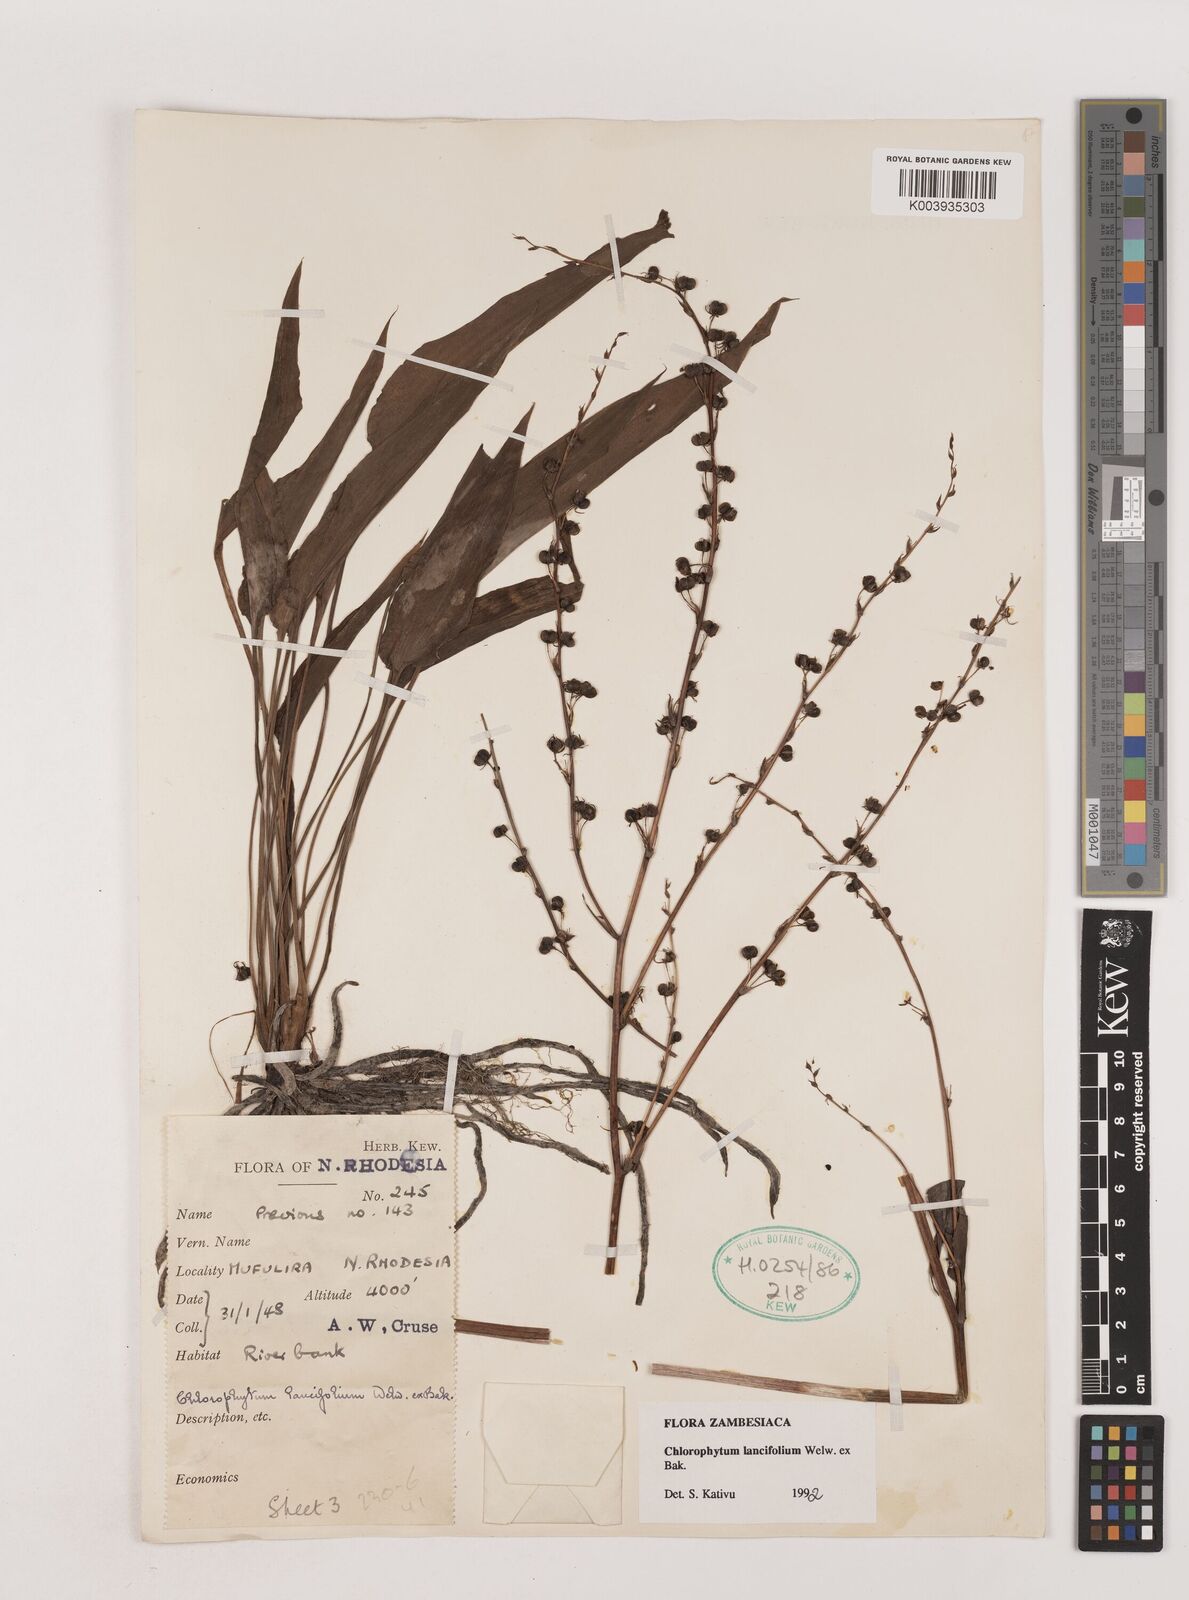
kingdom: Plantae
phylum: Tracheophyta
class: Liliopsida
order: Asparagales
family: Asparagaceae
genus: Chlorophytum
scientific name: Chlorophytum lancifolium
